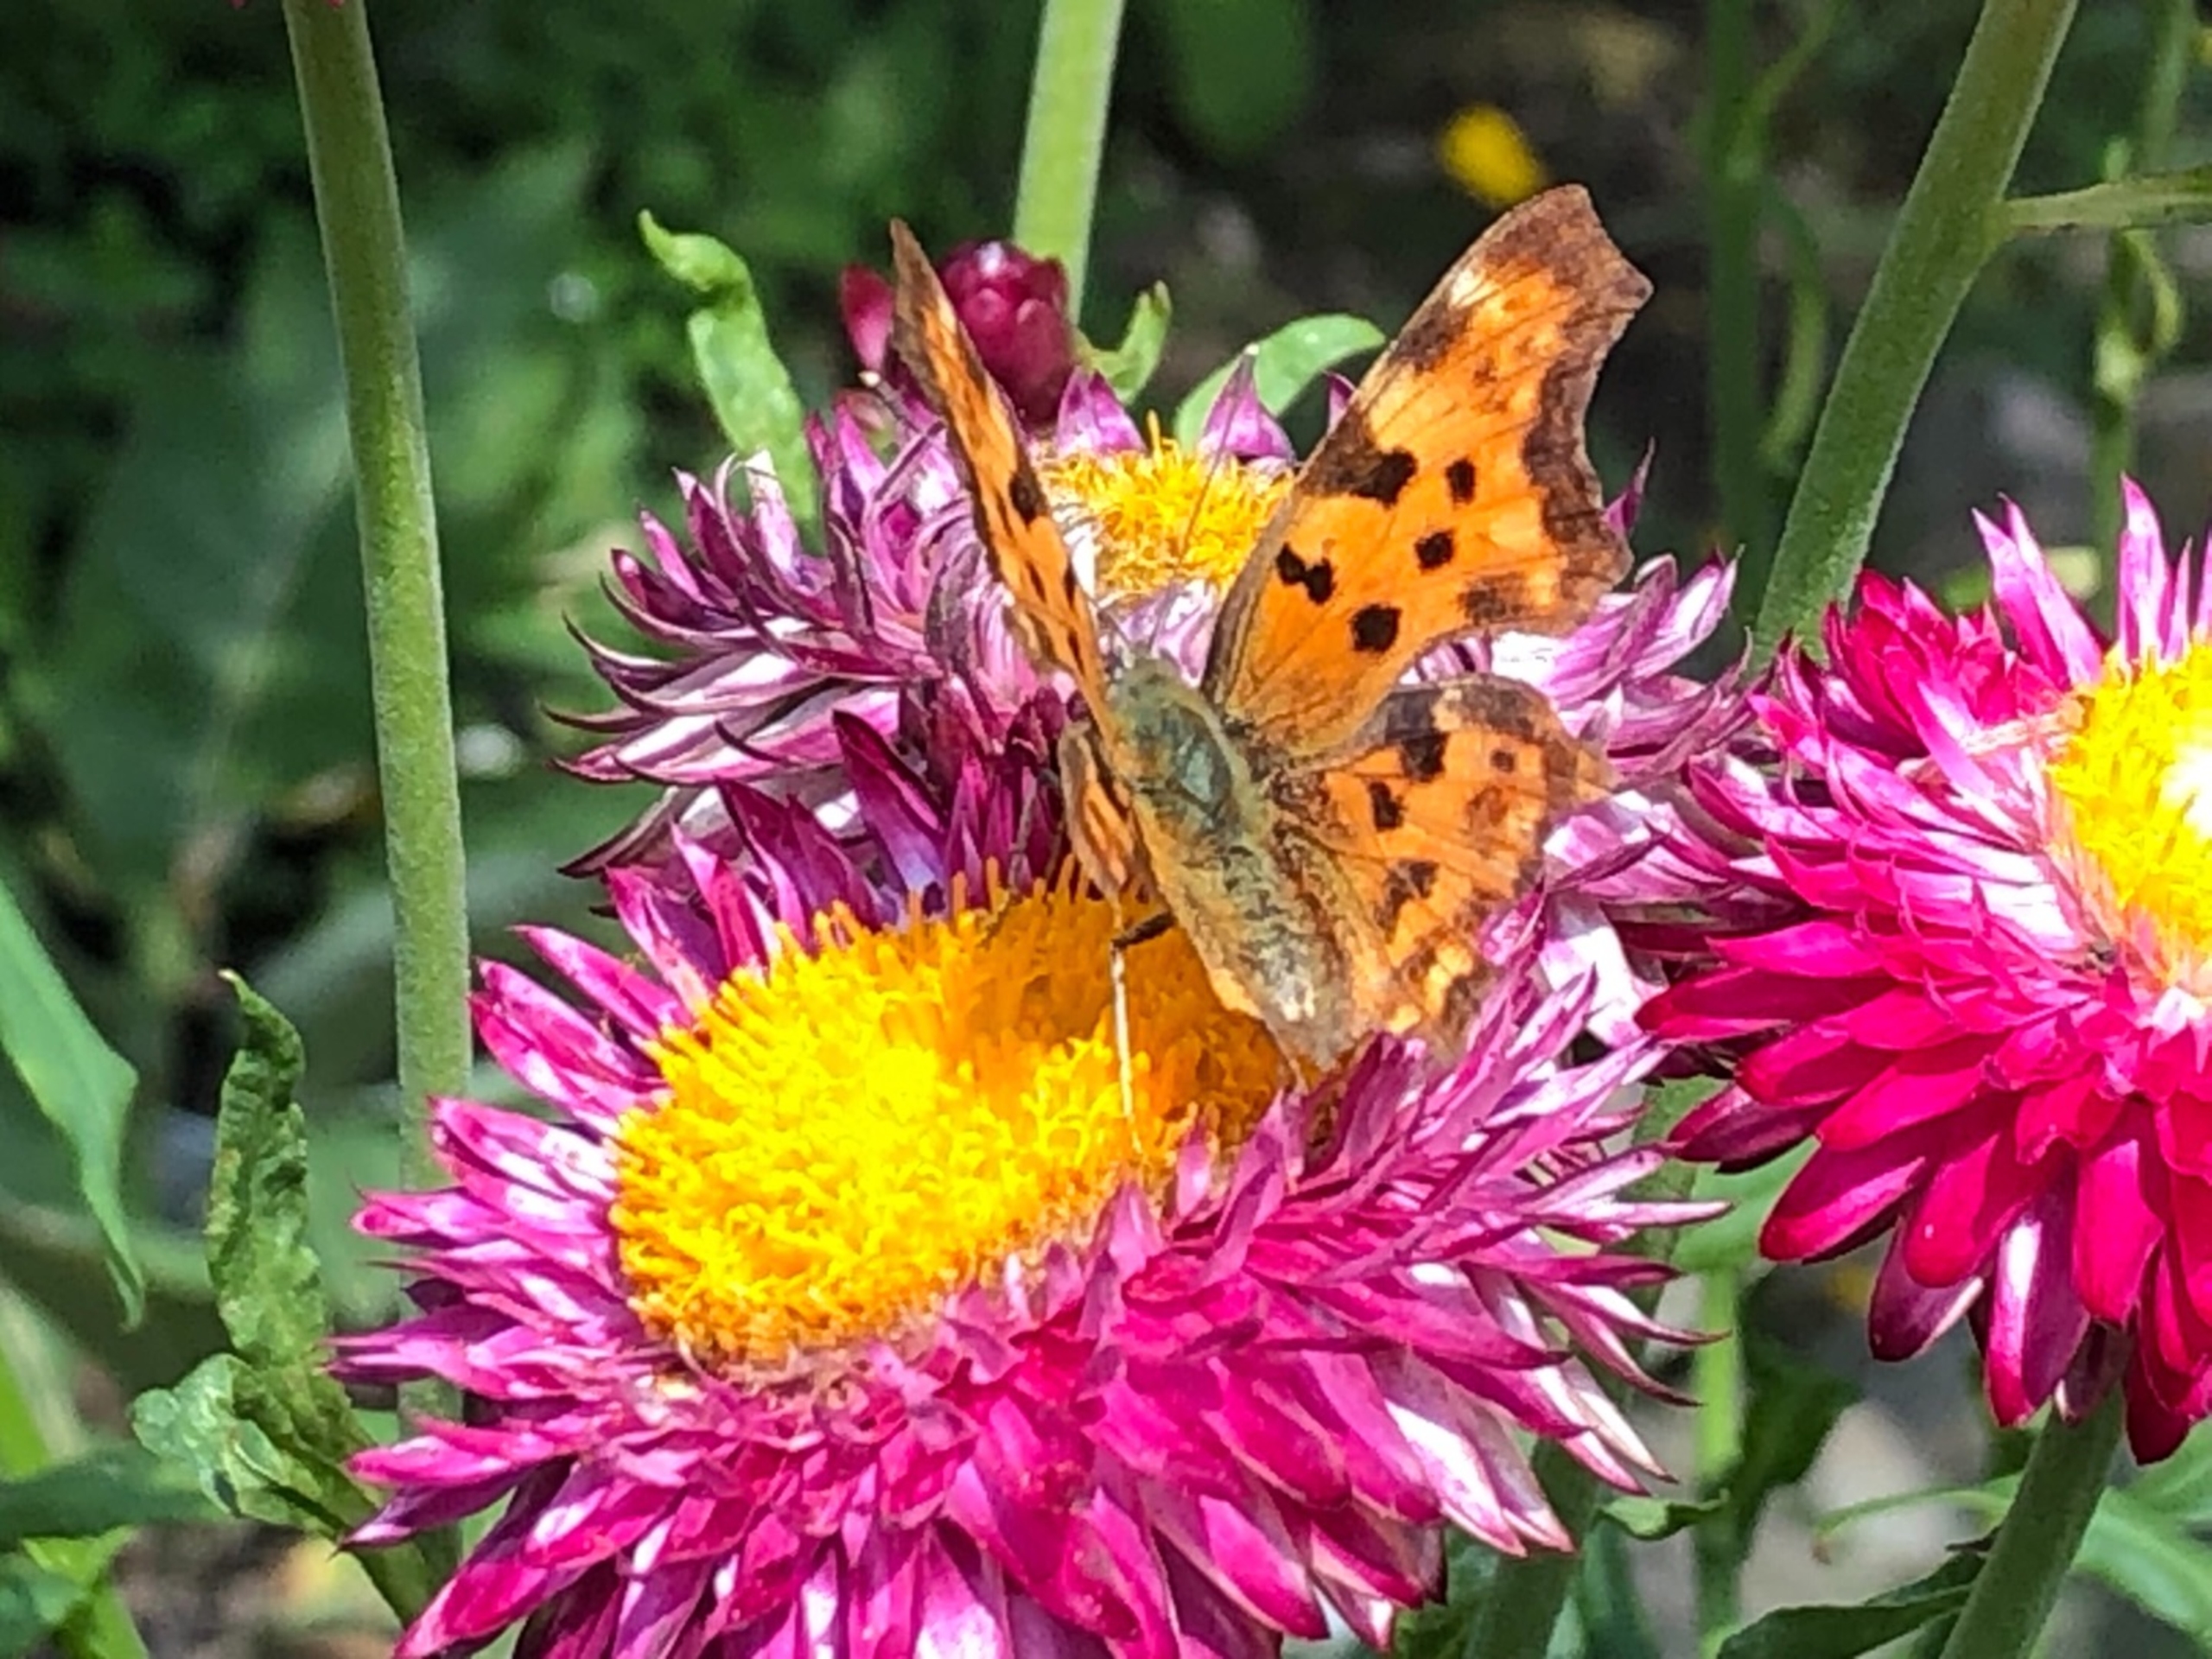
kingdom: Animalia
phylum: Arthropoda
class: Insecta
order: Lepidoptera
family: Nymphalidae
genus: Polygonia
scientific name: Polygonia c-album
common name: Det hvide C
